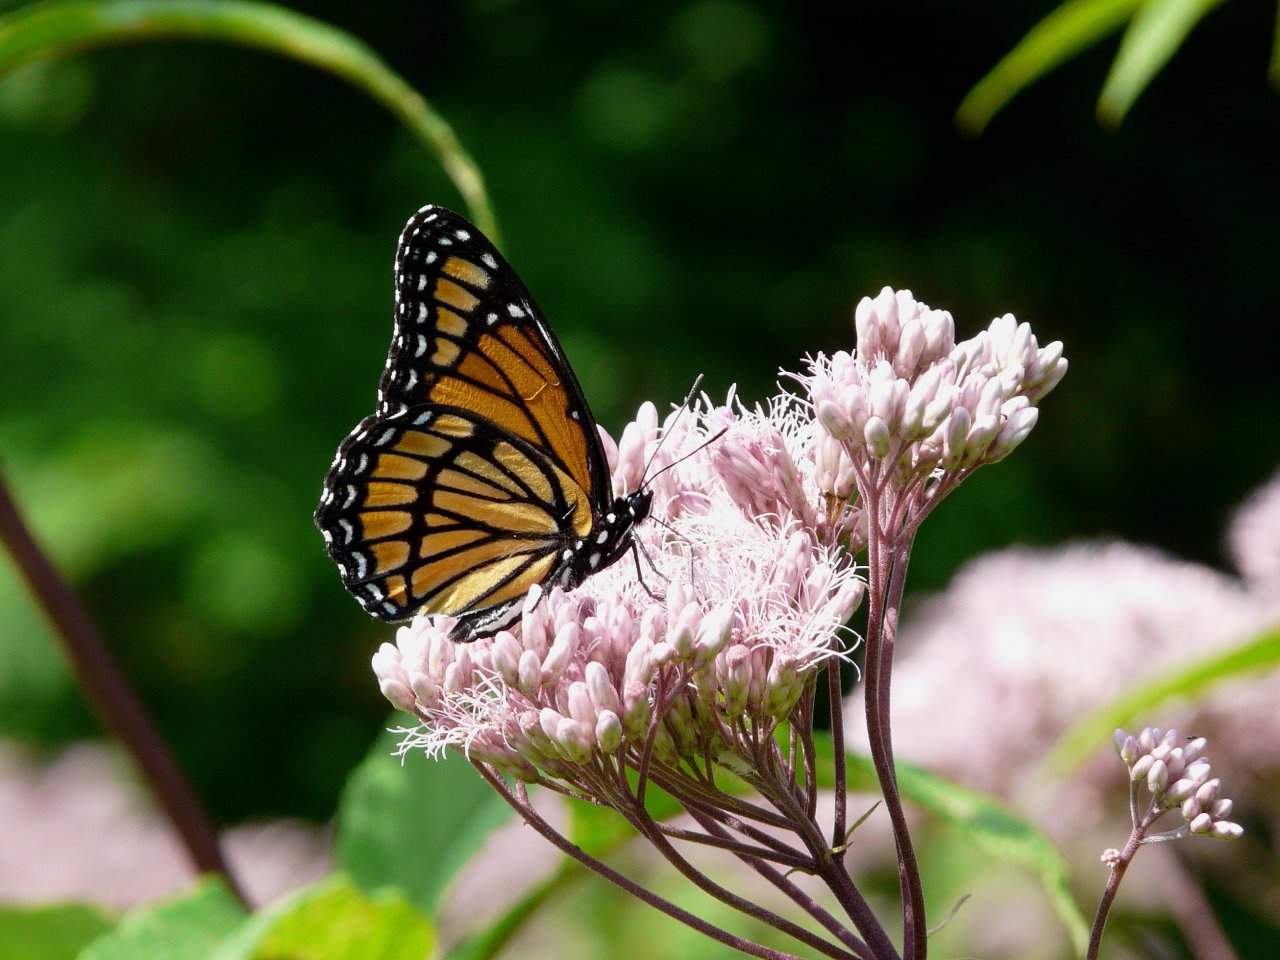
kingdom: Animalia
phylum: Arthropoda
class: Insecta
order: Lepidoptera
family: Nymphalidae
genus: Limenitis
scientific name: Limenitis archippus
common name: Viceroy
